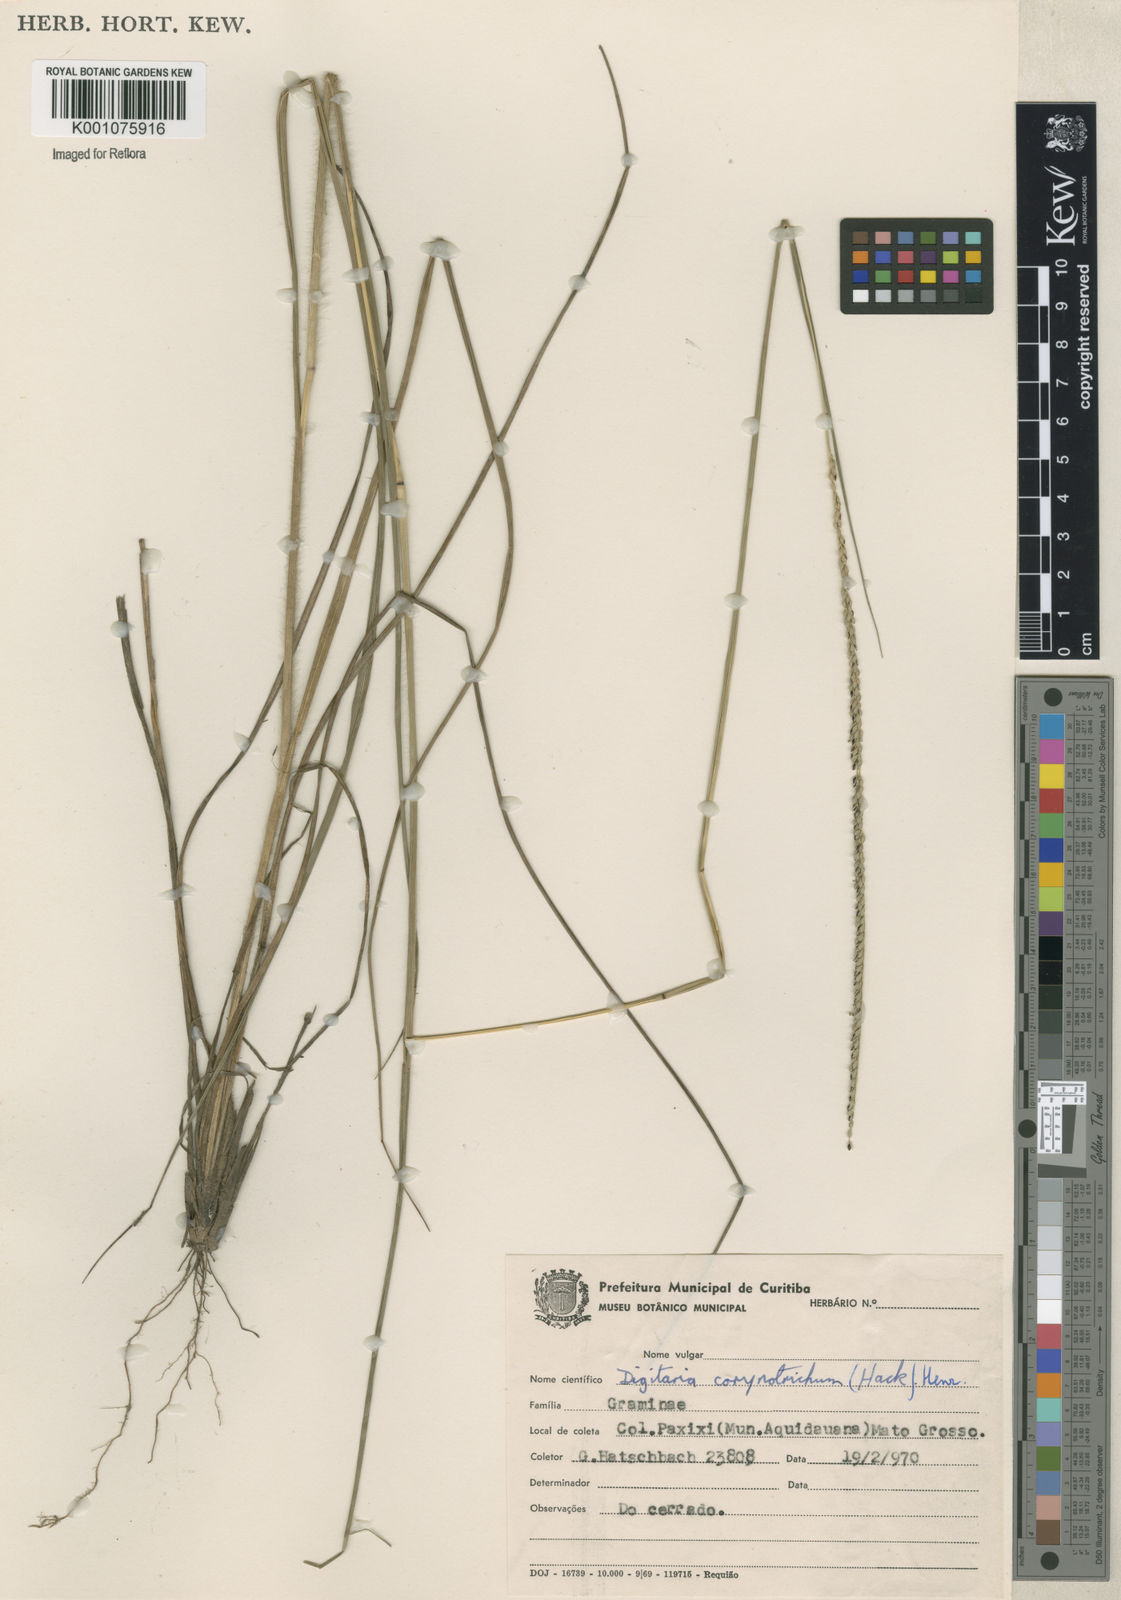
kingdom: Plantae
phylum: Tracheophyta
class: Liliopsida
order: Poales
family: Poaceae
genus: Digitaria
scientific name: Digitaria corynotricha
